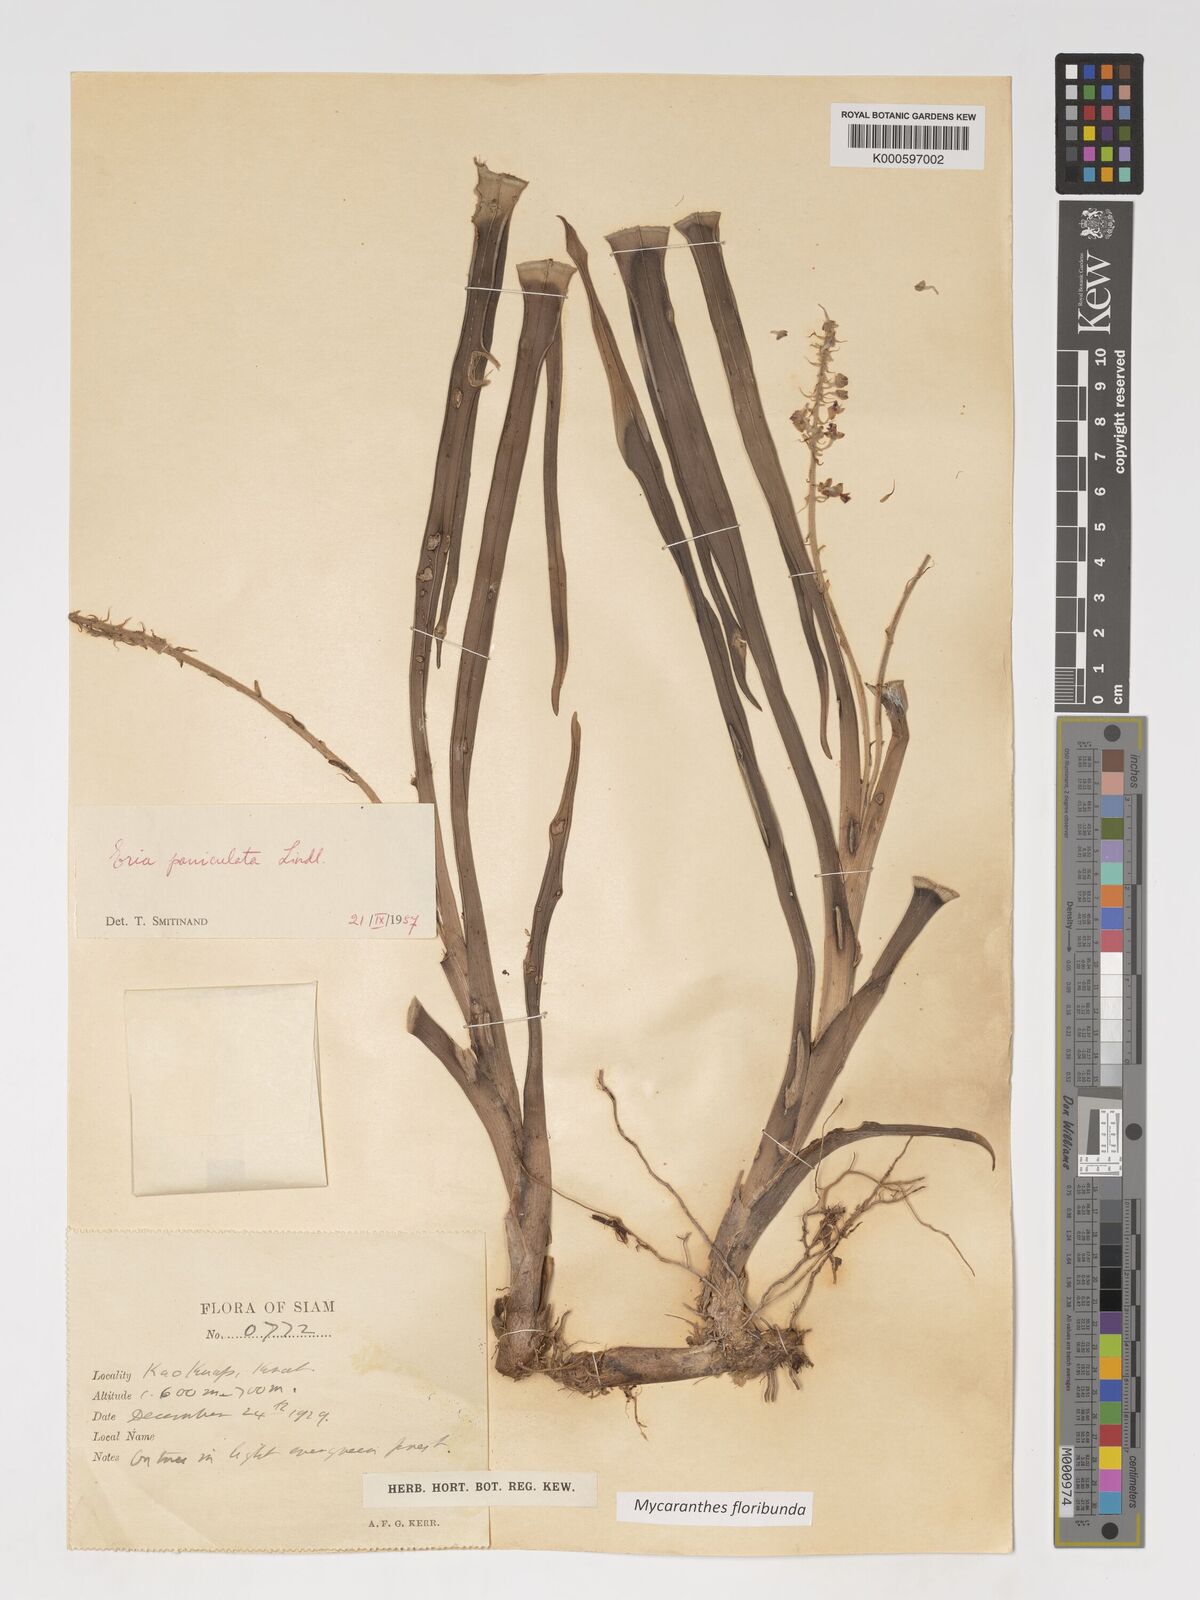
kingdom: Plantae
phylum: Tracheophyta
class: Liliopsida
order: Asparagales
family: Orchidaceae
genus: Mycaranthes
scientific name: Mycaranthes floribunda
